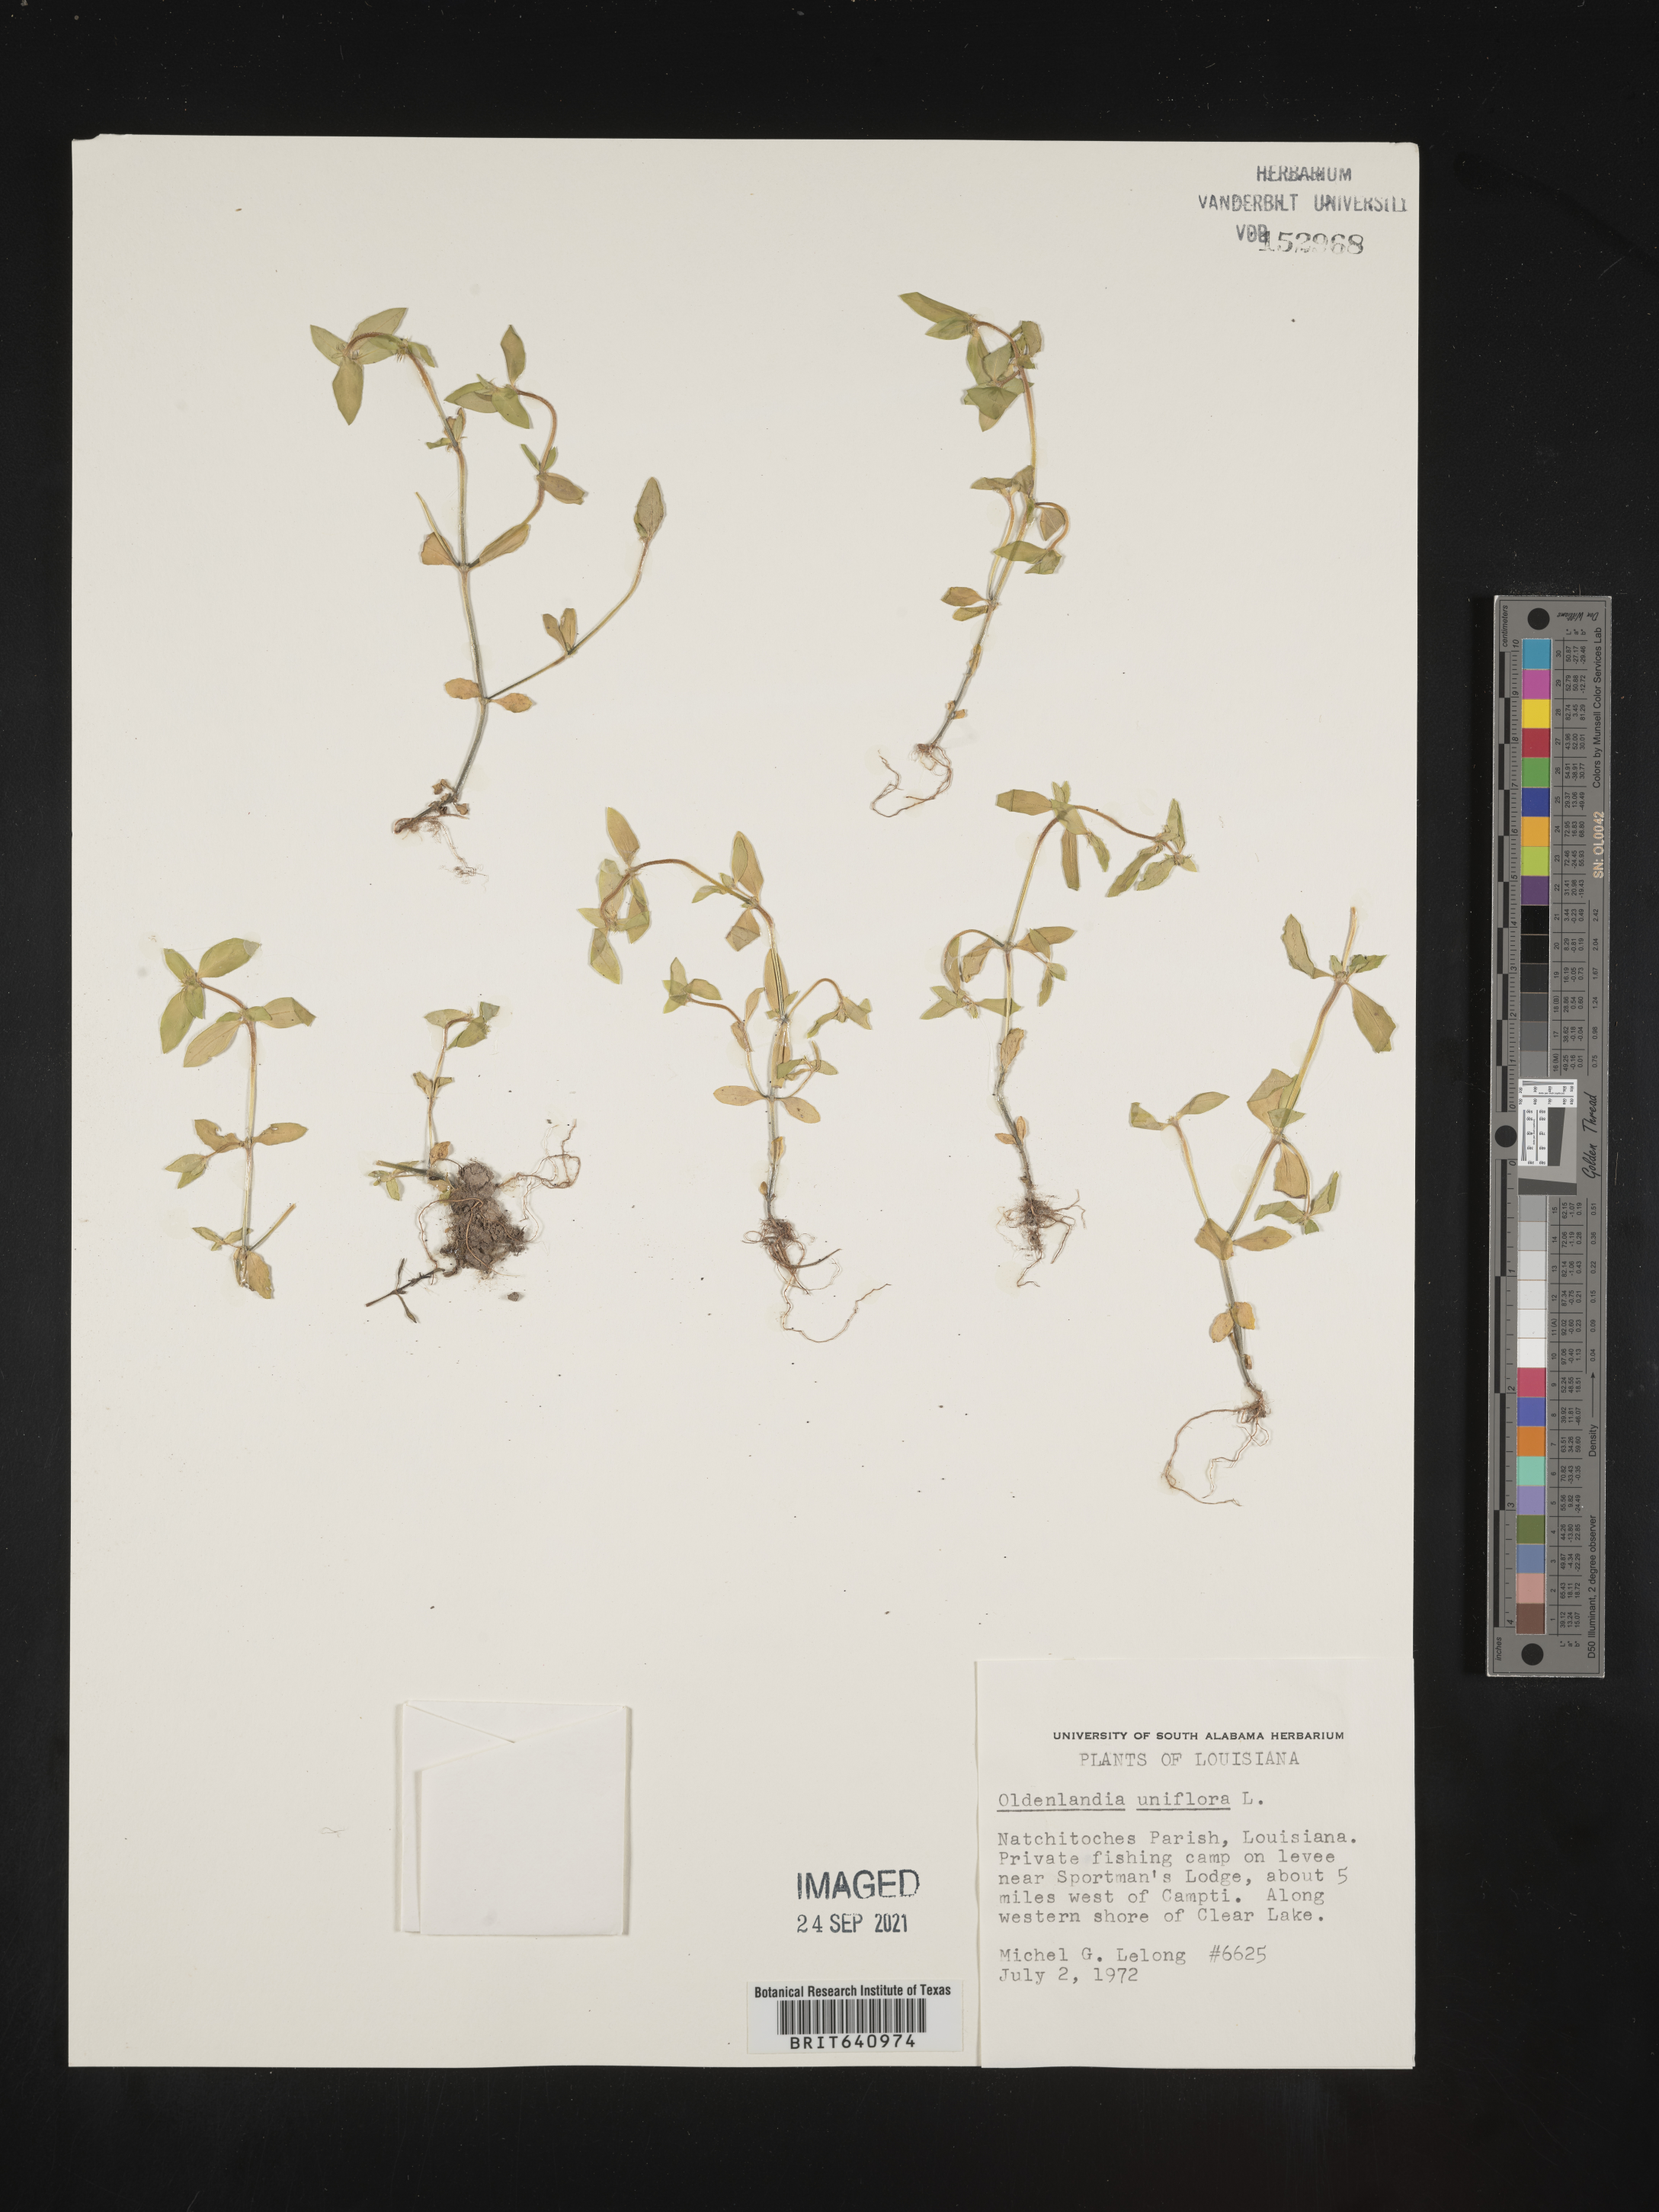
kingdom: Plantae
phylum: Tracheophyta
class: Magnoliopsida
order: Gentianales
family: Rubiaceae
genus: Edrastima
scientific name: Edrastima uniflora
